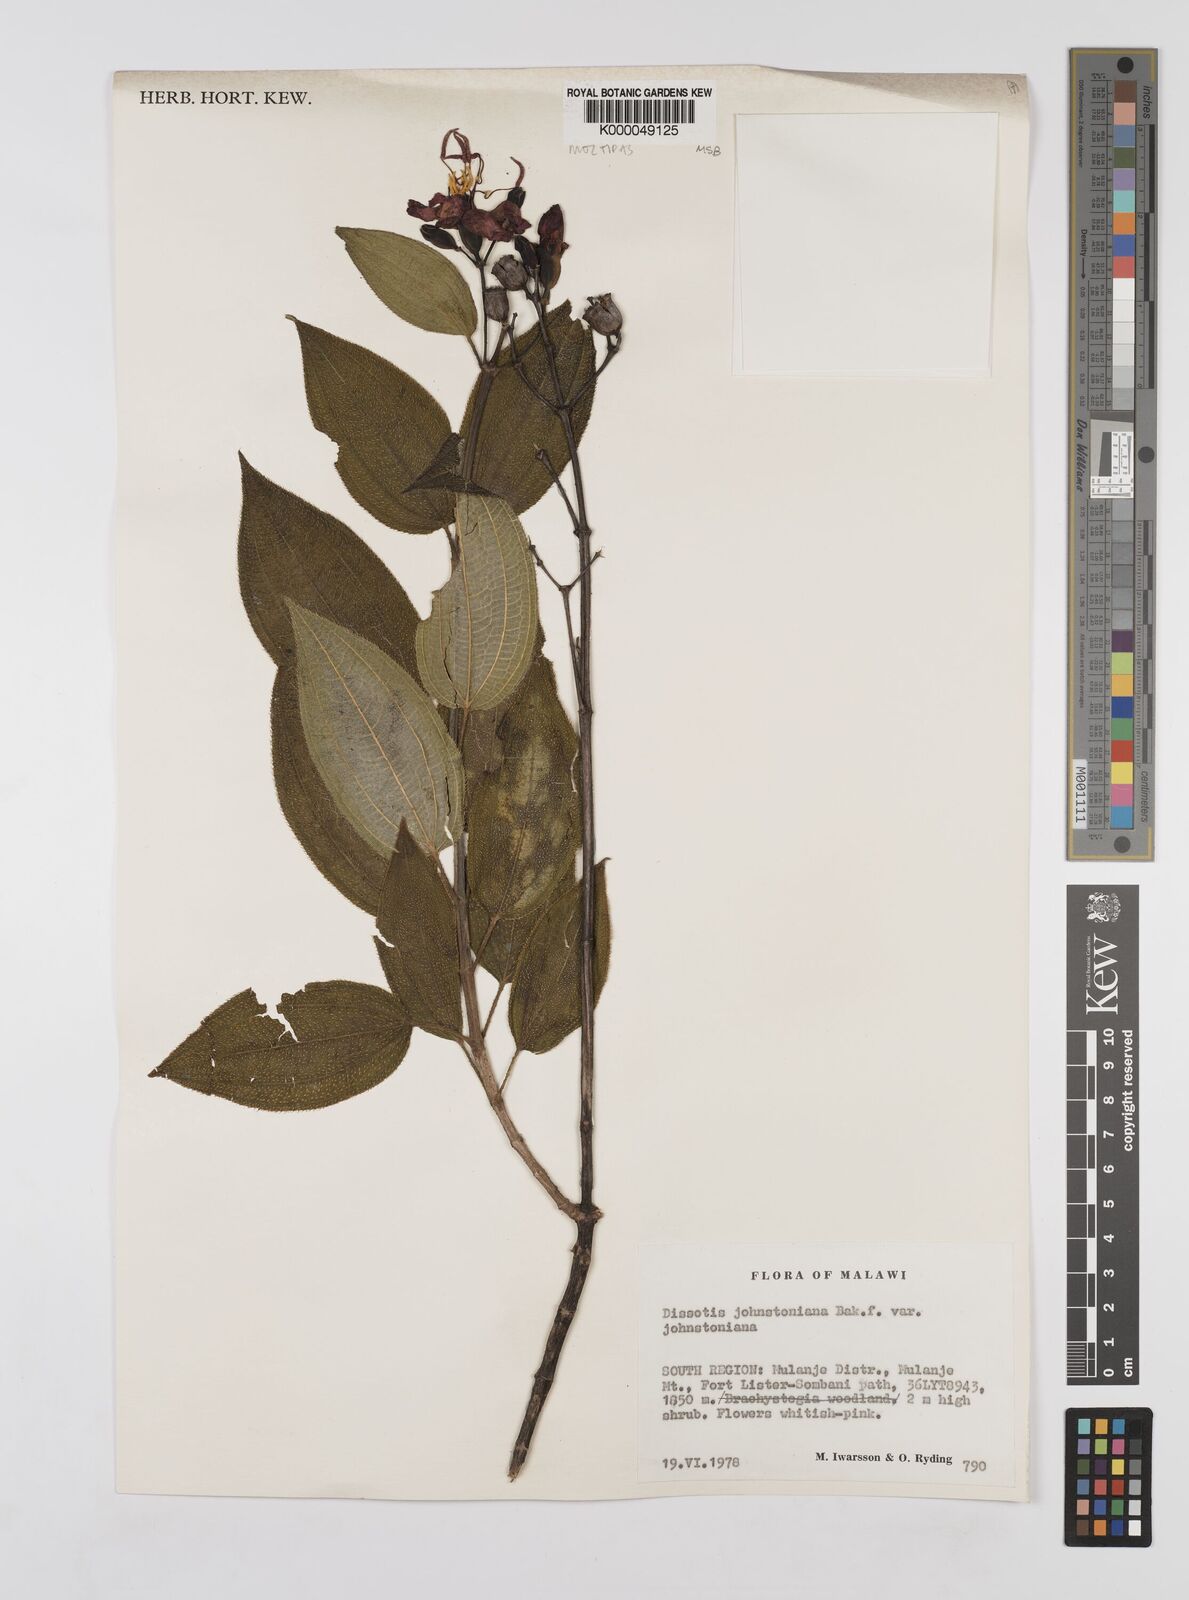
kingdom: Plantae
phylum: Tracheophyta
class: Magnoliopsida
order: Myrtales
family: Melastomataceae
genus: Dissotidendron
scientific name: Dissotidendron johnstonianum
